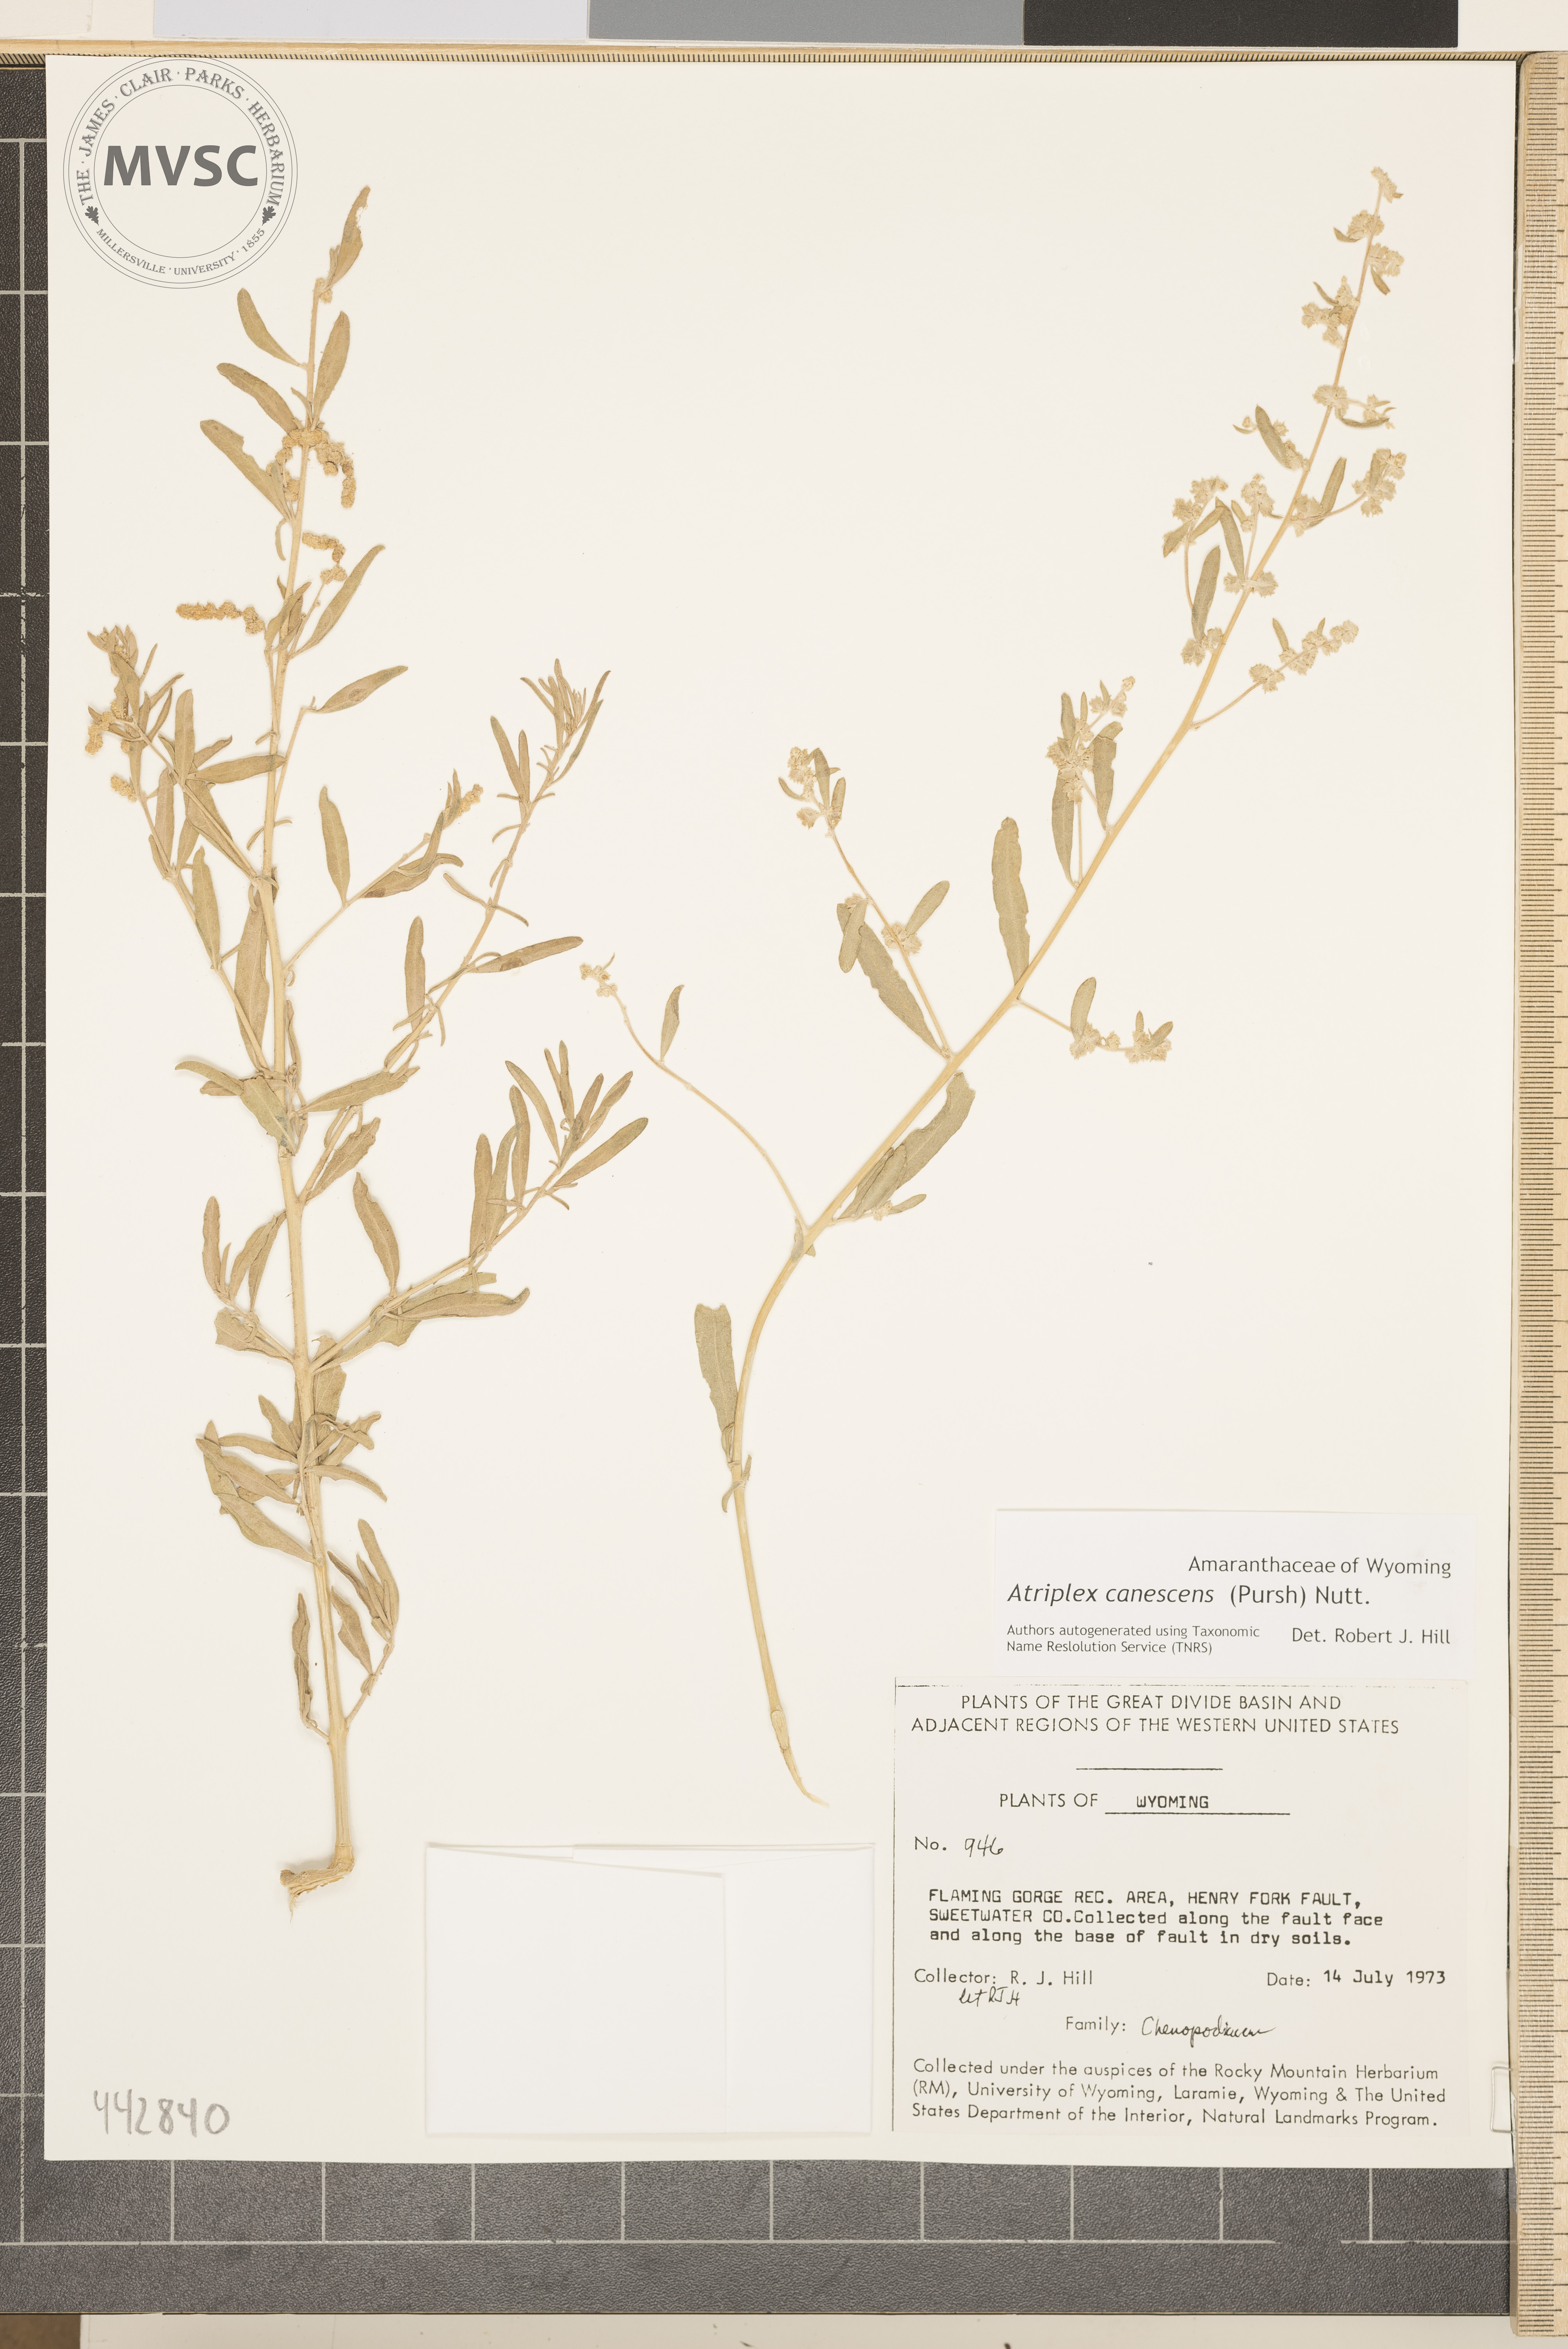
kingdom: Plantae
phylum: Tracheophyta
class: Magnoliopsida
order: Caryophyllales
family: Amaranthaceae
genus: Atriplex
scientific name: Atriplex canescens
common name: Four-wing saltbush
